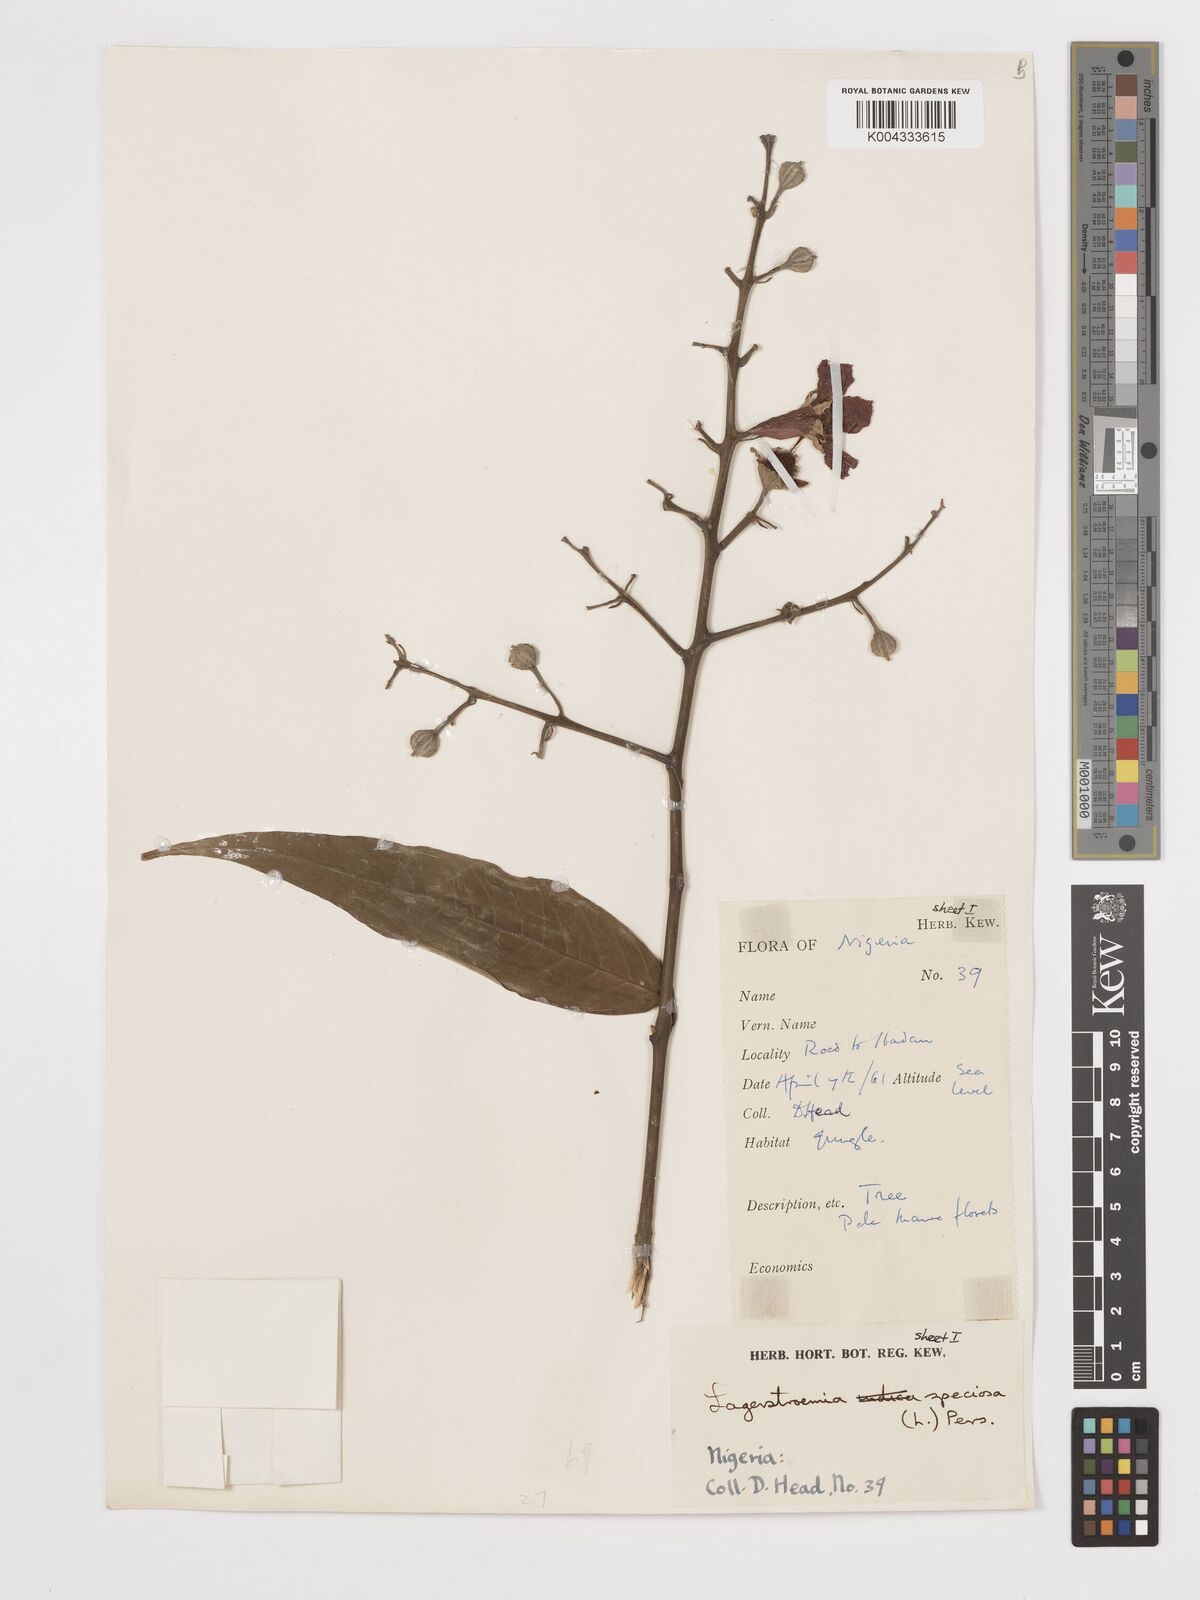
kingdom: Plantae
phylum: Tracheophyta
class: Magnoliopsida
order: Myrtales
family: Lythraceae
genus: Lagerstroemia
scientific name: Lagerstroemia speciosa
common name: Queen's crape-myrtle
